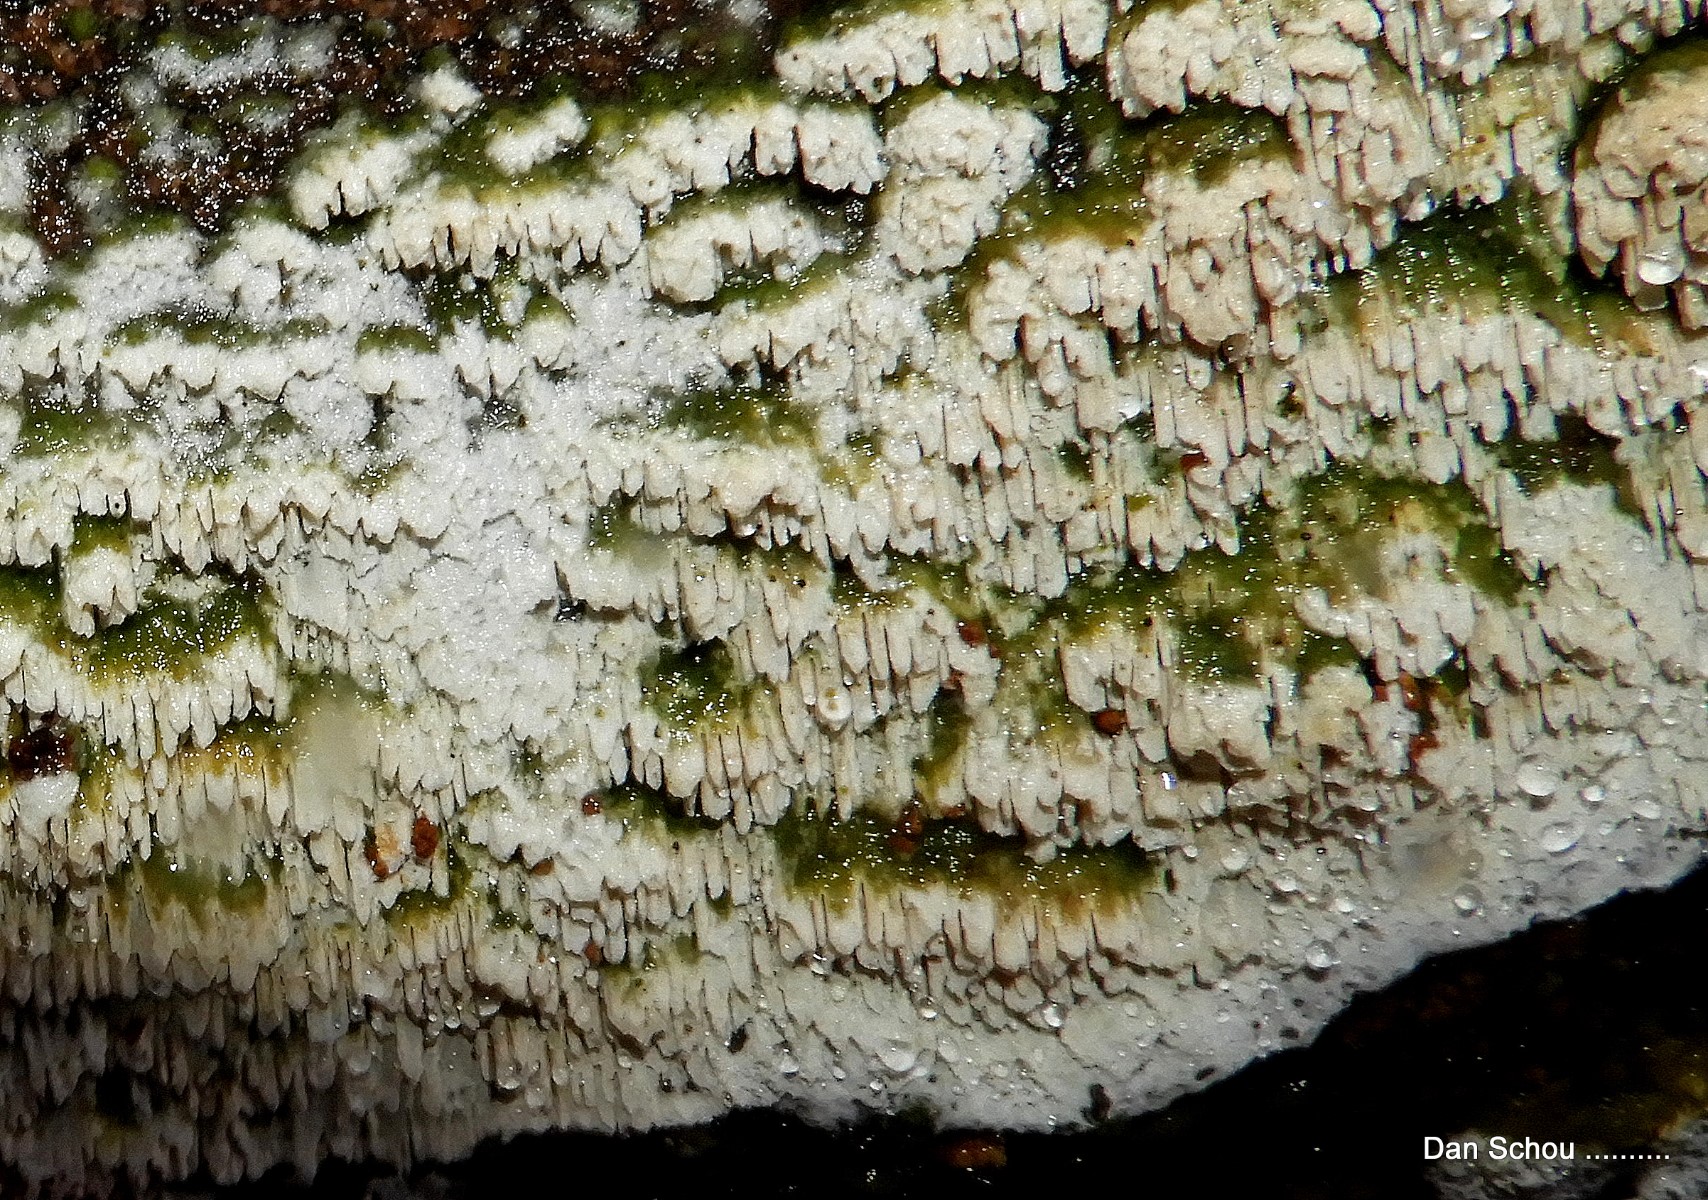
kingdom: Fungi
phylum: Basidiomycota
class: Agaricomycetes
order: Hymenochaetales
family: Schizoporaceae
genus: Schizopora
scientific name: Schizopora paradoxa
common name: hvid tandsvamp
